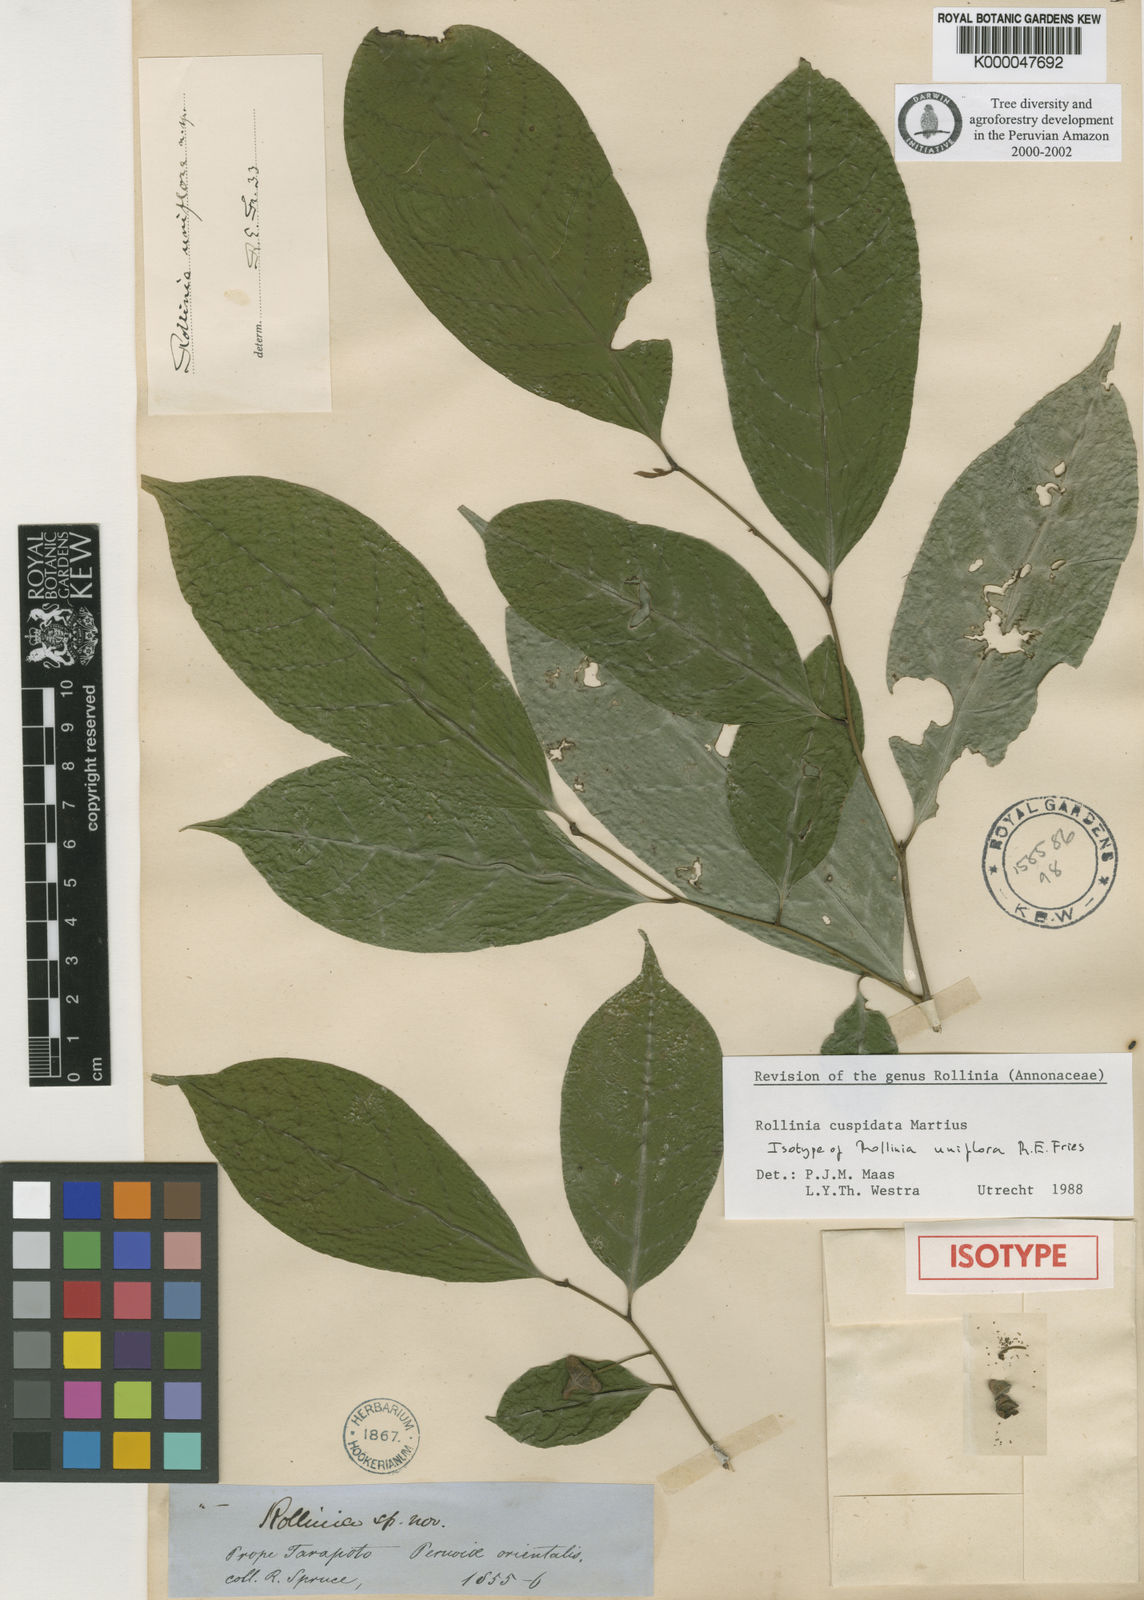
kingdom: Plantae
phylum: Tracheophyta
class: Magnoliopsida
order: Magnoliales
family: Annonaceae
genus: Annona
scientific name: Annona cuspidata
